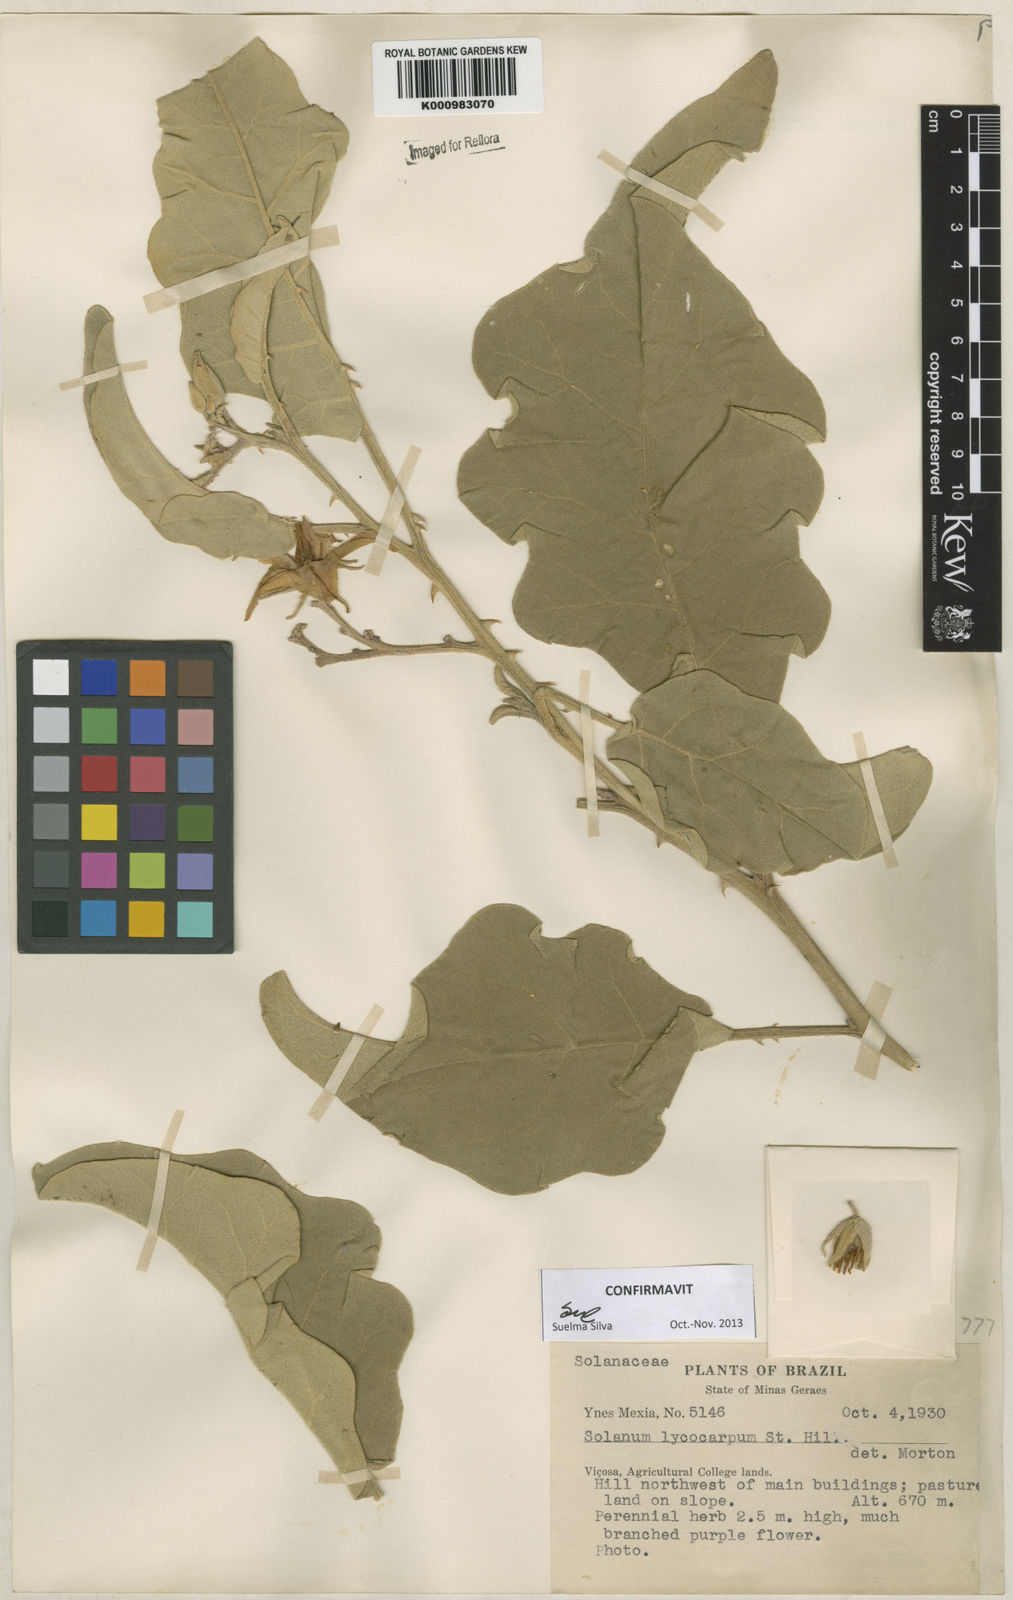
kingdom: Plantae
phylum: Tracheophyta
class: Magnoliopsida
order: Solanales
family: Solanaceae
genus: Solanum
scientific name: Solanum lycocarpum
